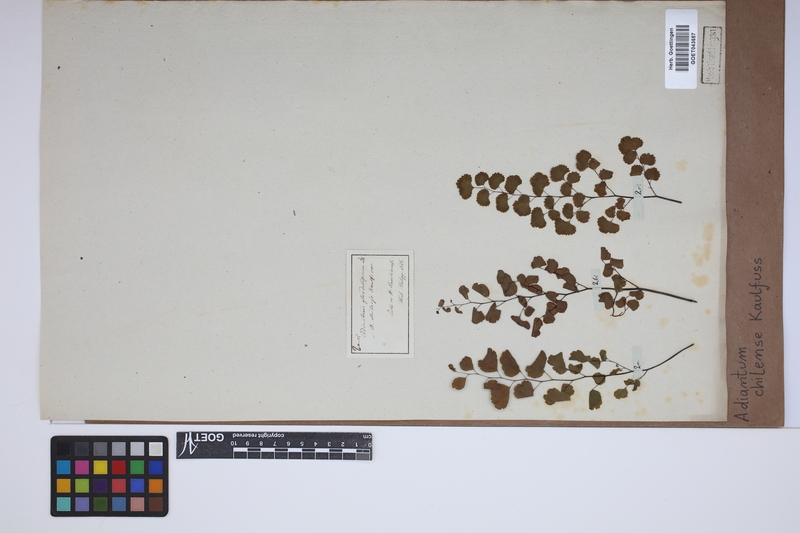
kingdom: Plantae
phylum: Tracheophyta
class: Polypodiopsida
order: Polypodiales
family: Pteridaceae
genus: Adiantum
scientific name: Adiantum chilense
